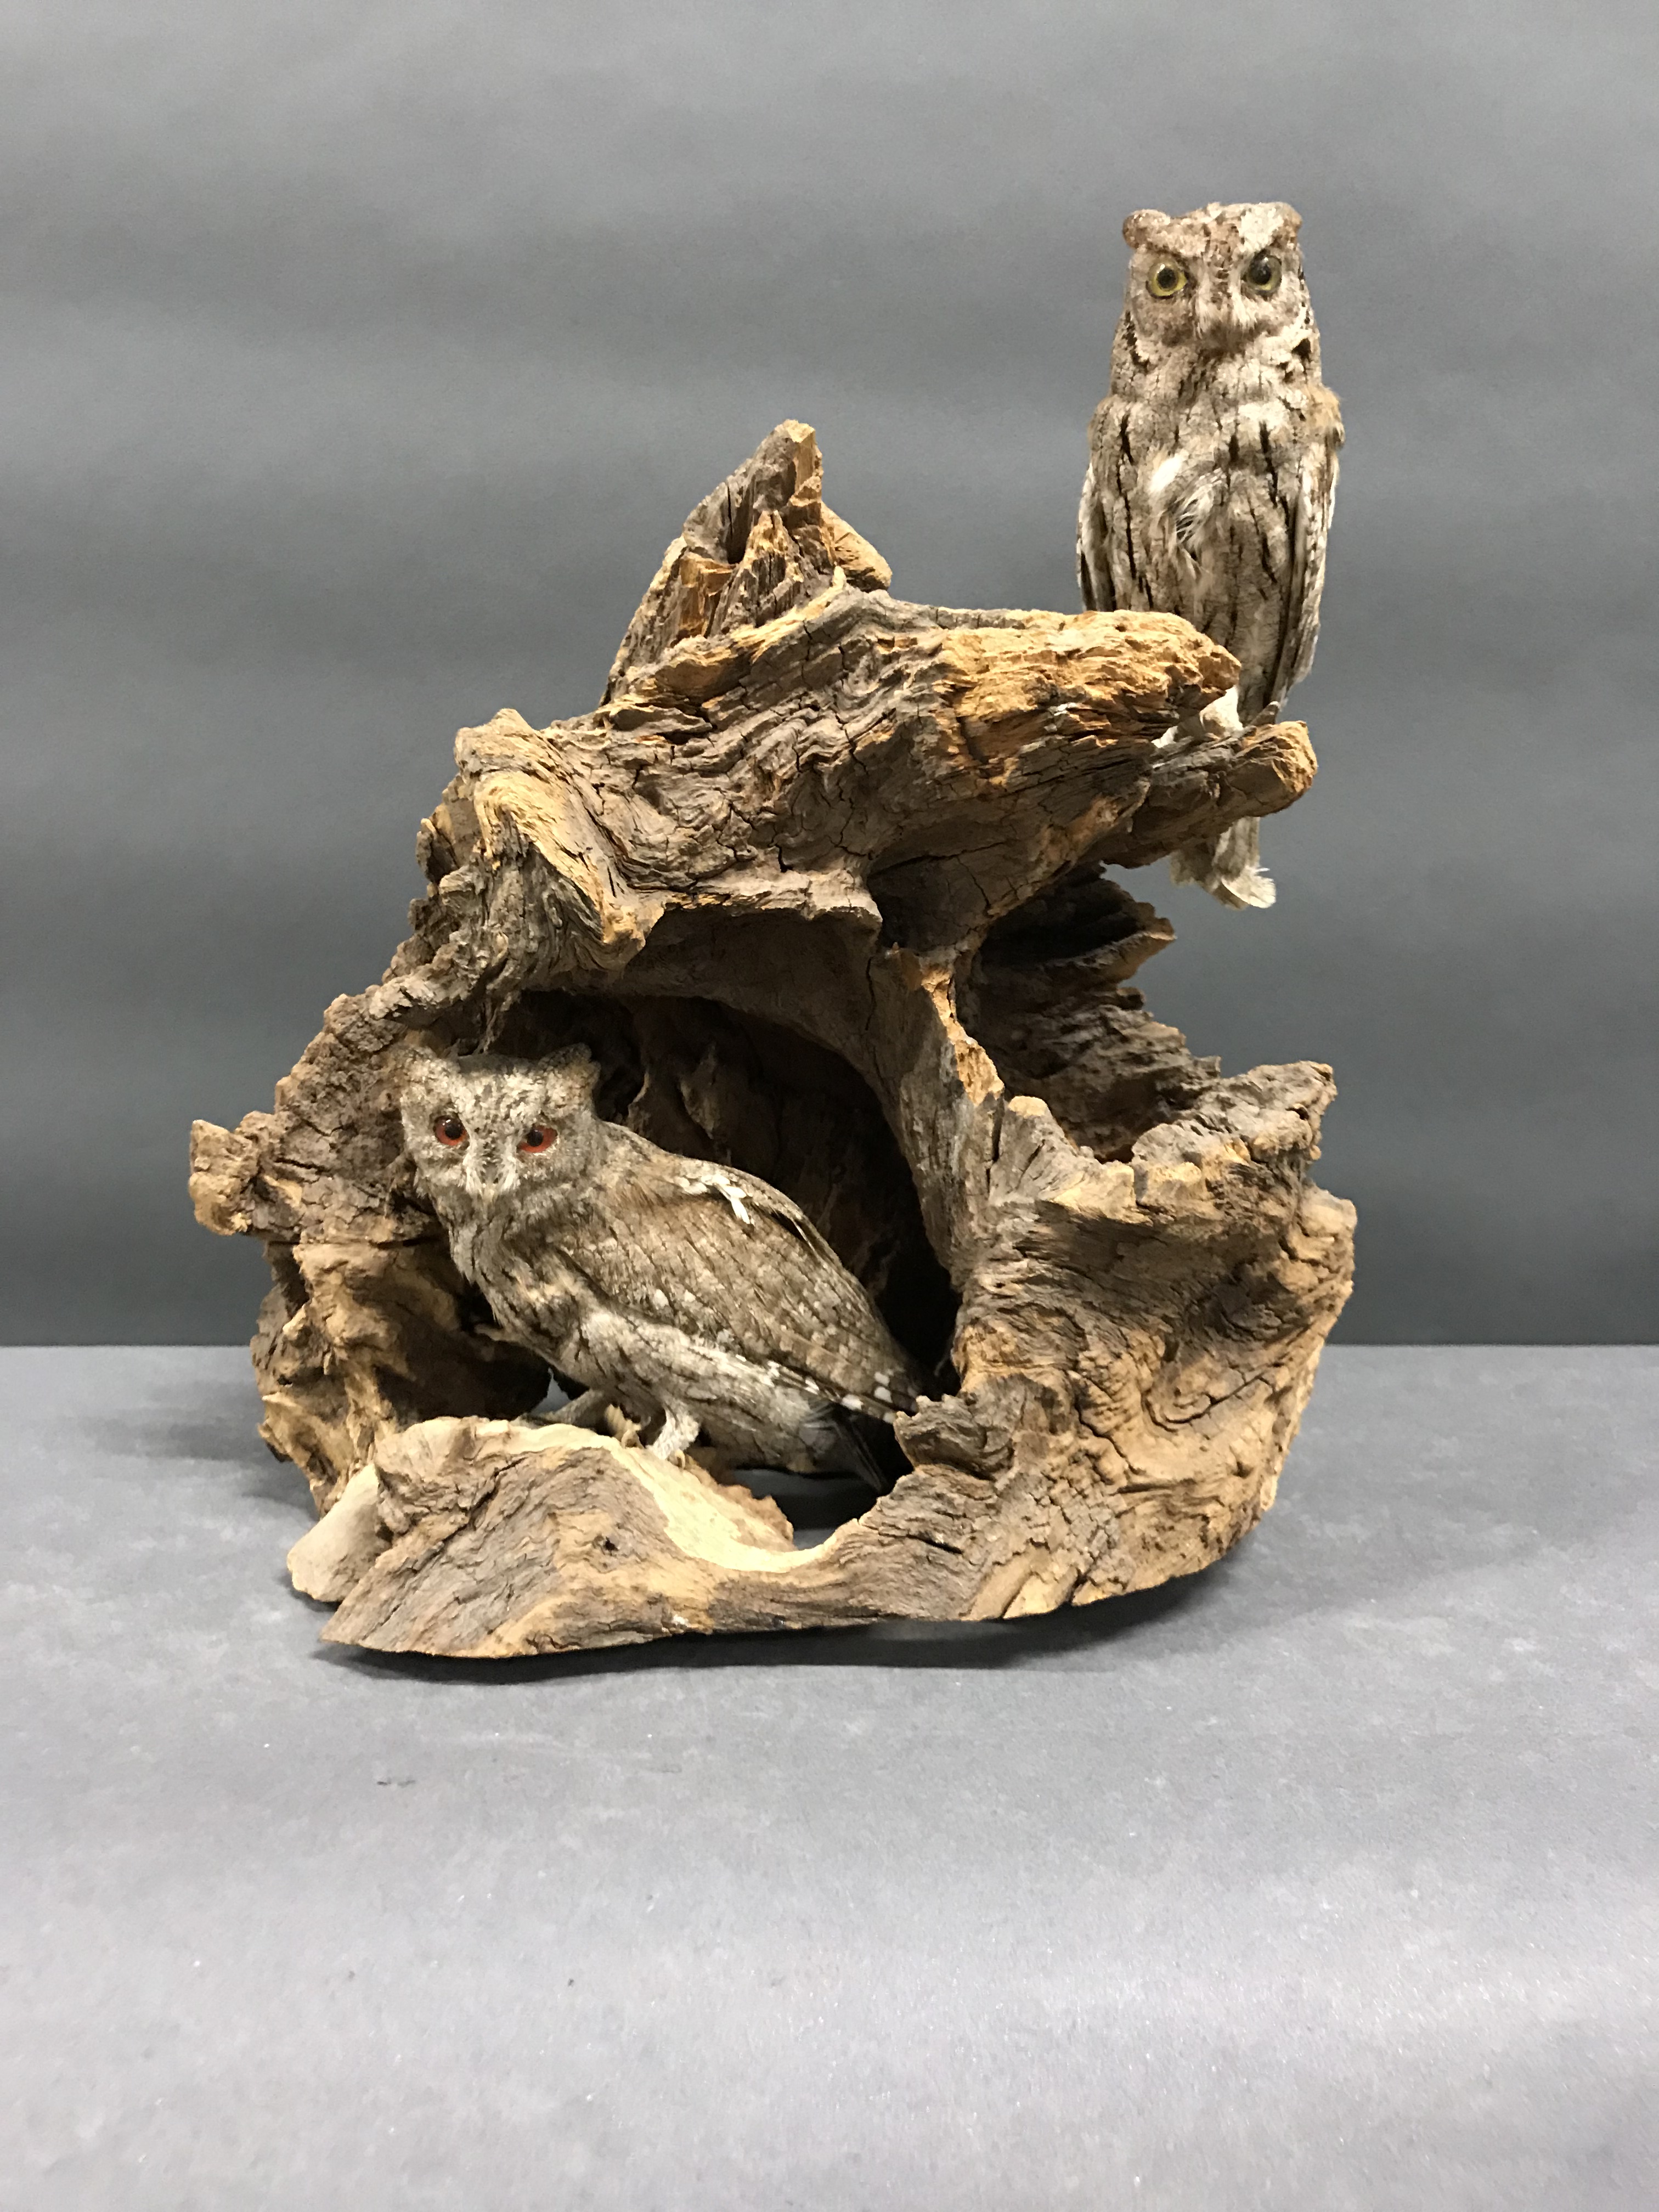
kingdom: Animalia
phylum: Chordata
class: Aves
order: Strigiformes
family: Strigidae
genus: Otus
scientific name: Otus scops
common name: Eurasian scops owl
